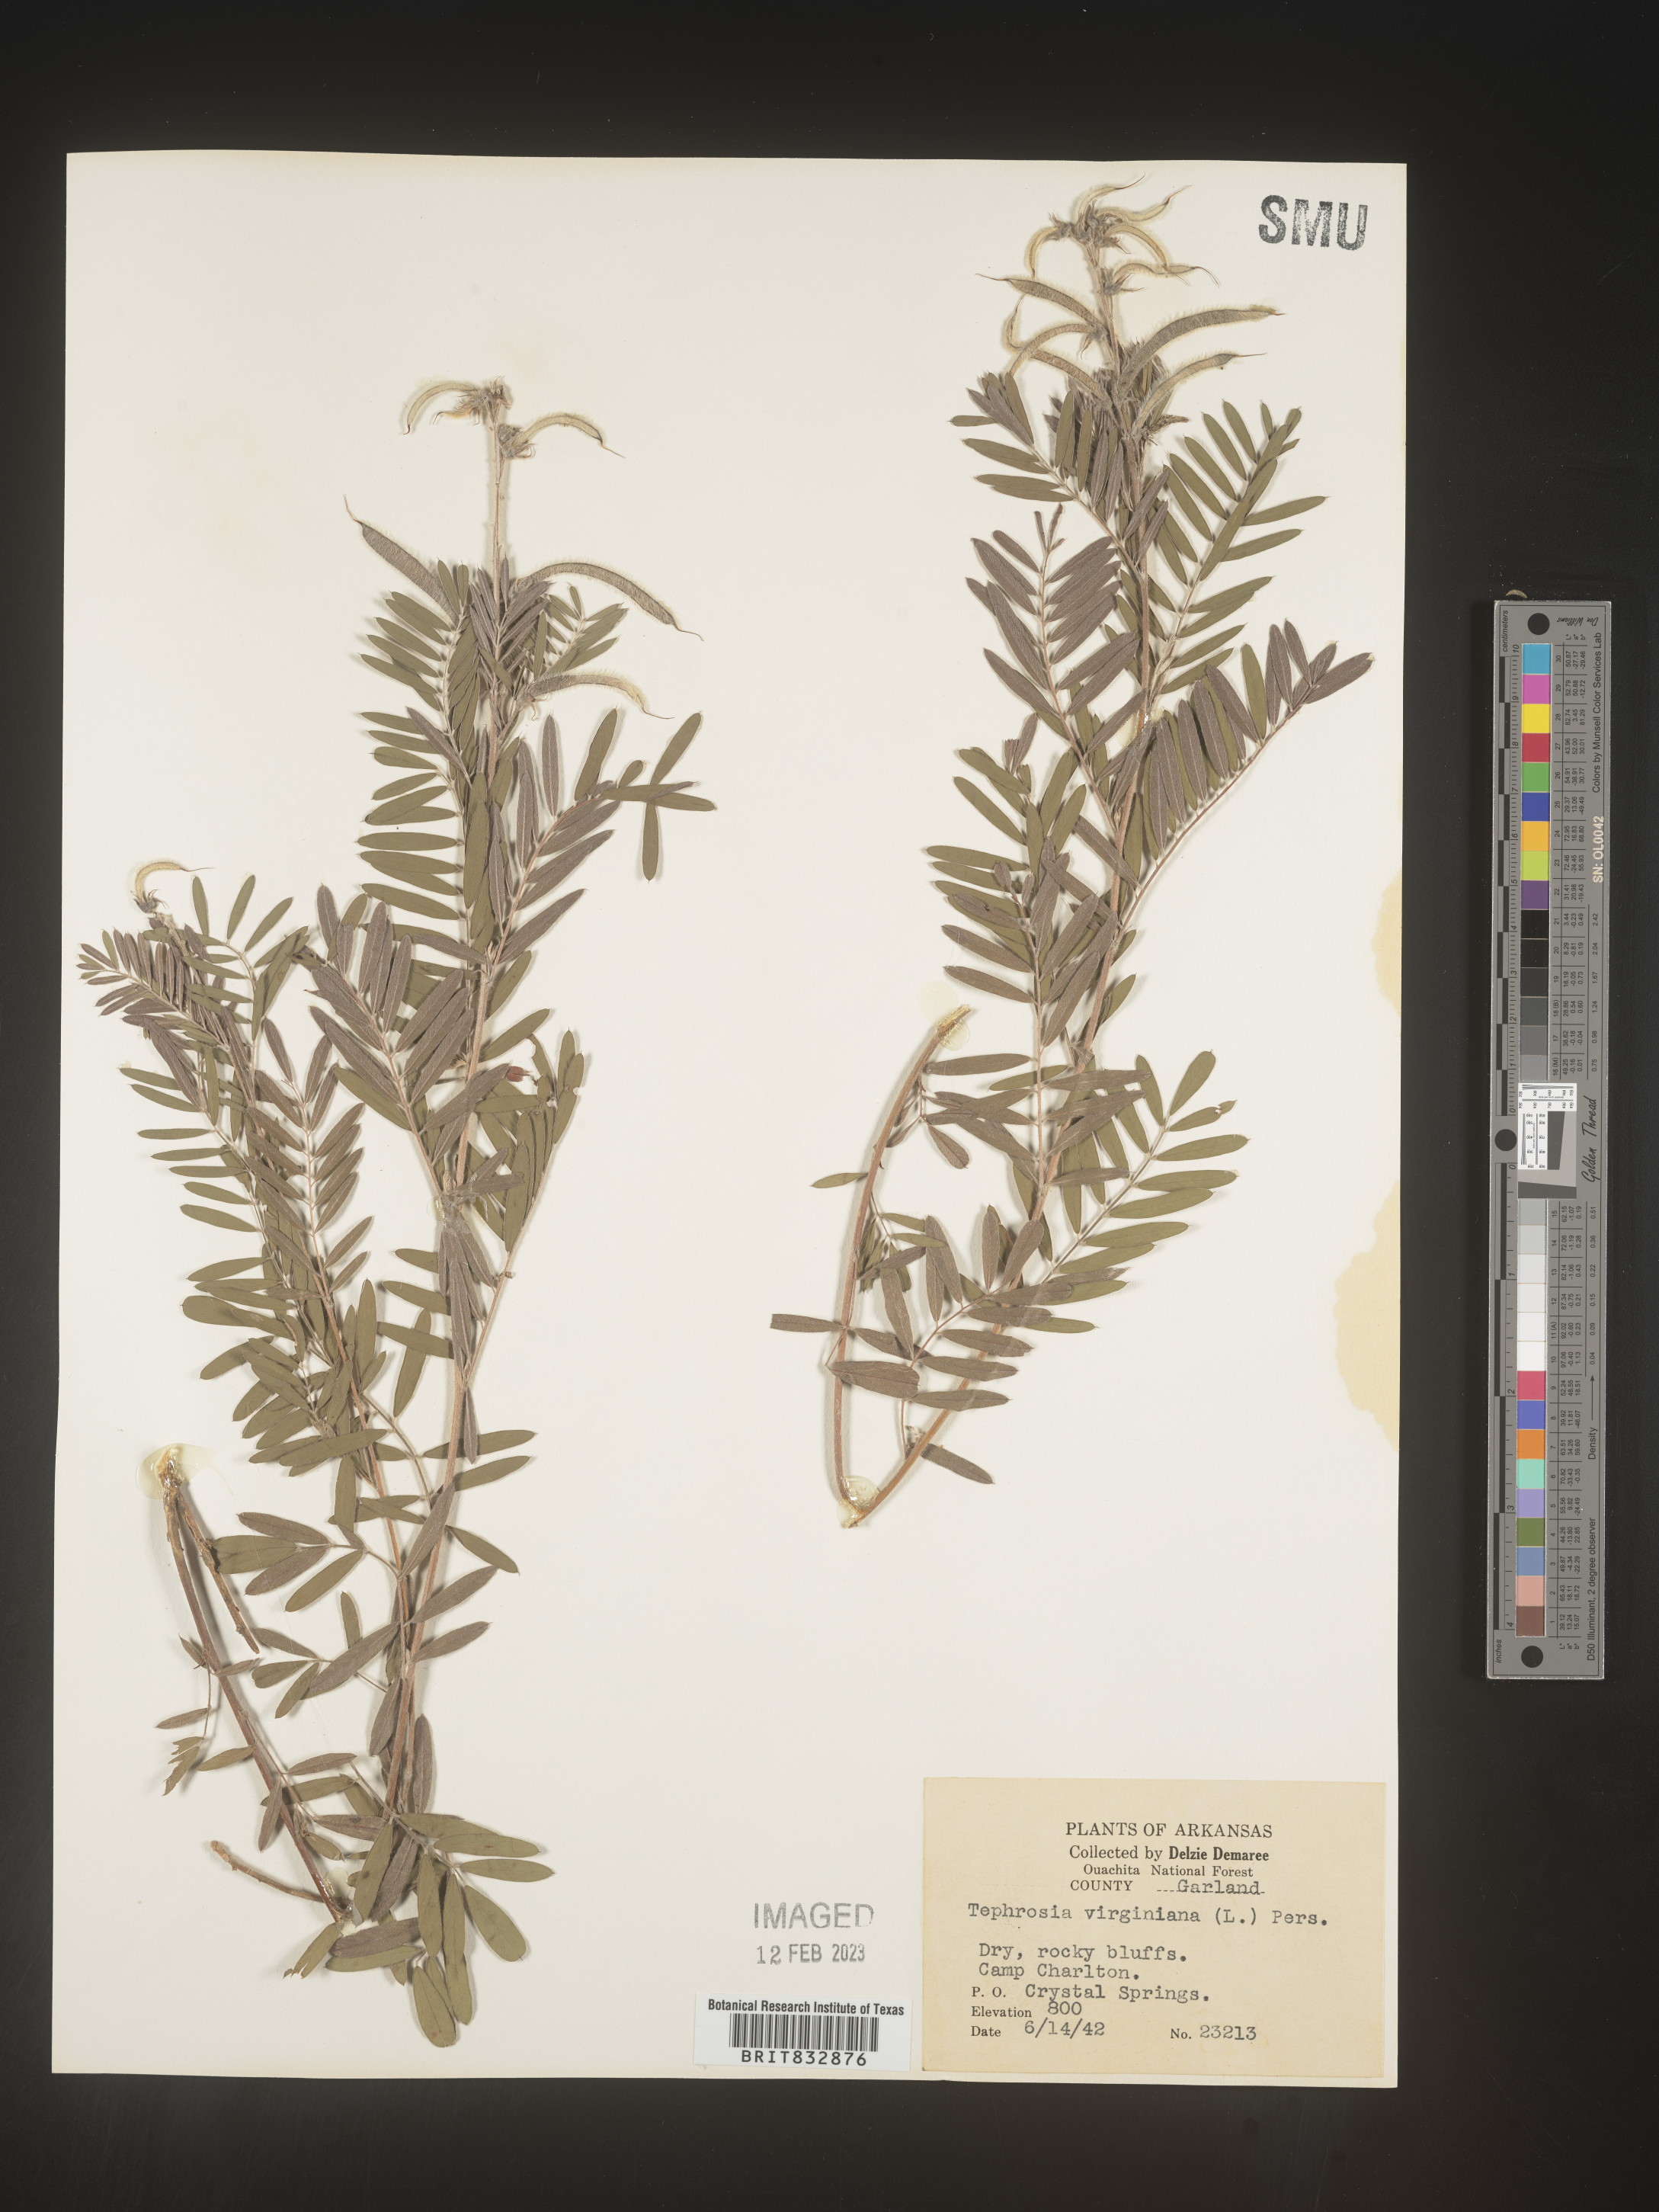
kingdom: Plantae
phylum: Tracheophyta
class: Magnoliopsida
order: Fabales
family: Fabaceae
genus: Tephrosia
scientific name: Tephrosia virginiana
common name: Rabbit-pea
